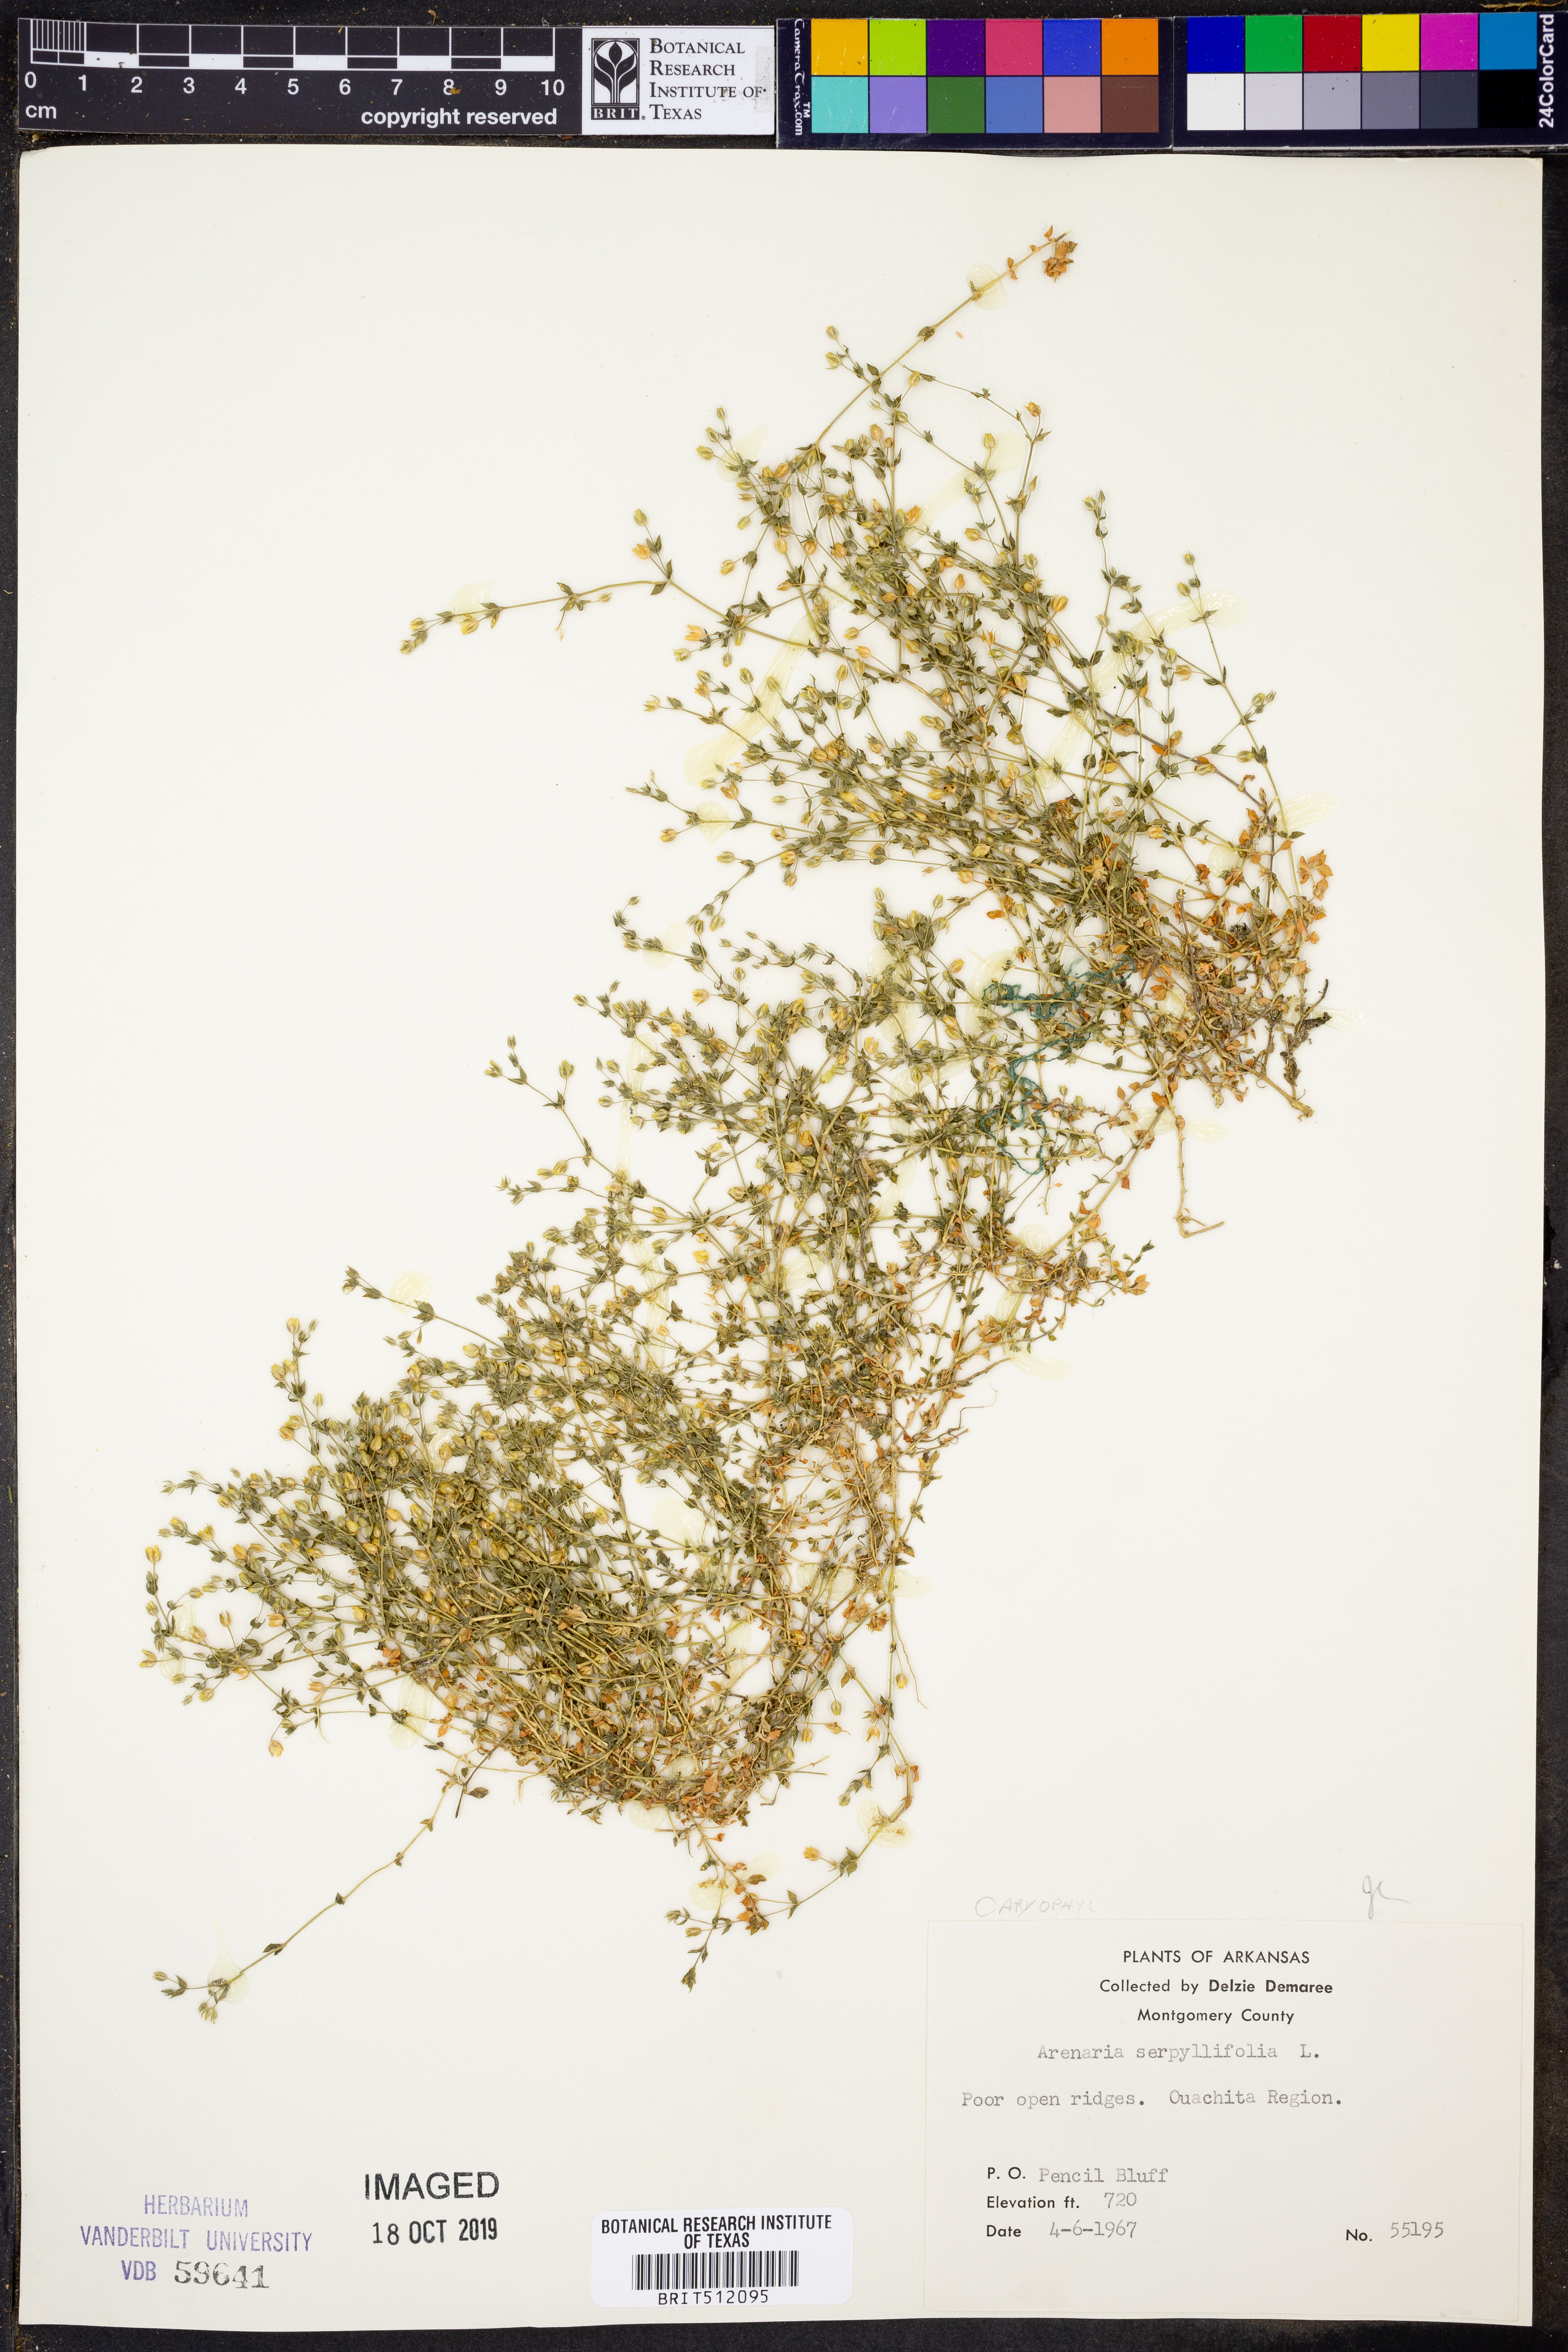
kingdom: Plantae
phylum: Tracheophyta
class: Magnoliopsida
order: Caryophyllales
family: Caryophyllaceae
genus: Arenaria
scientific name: Arenaria serpyllifolia
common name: Thyme-leaved sandwort
